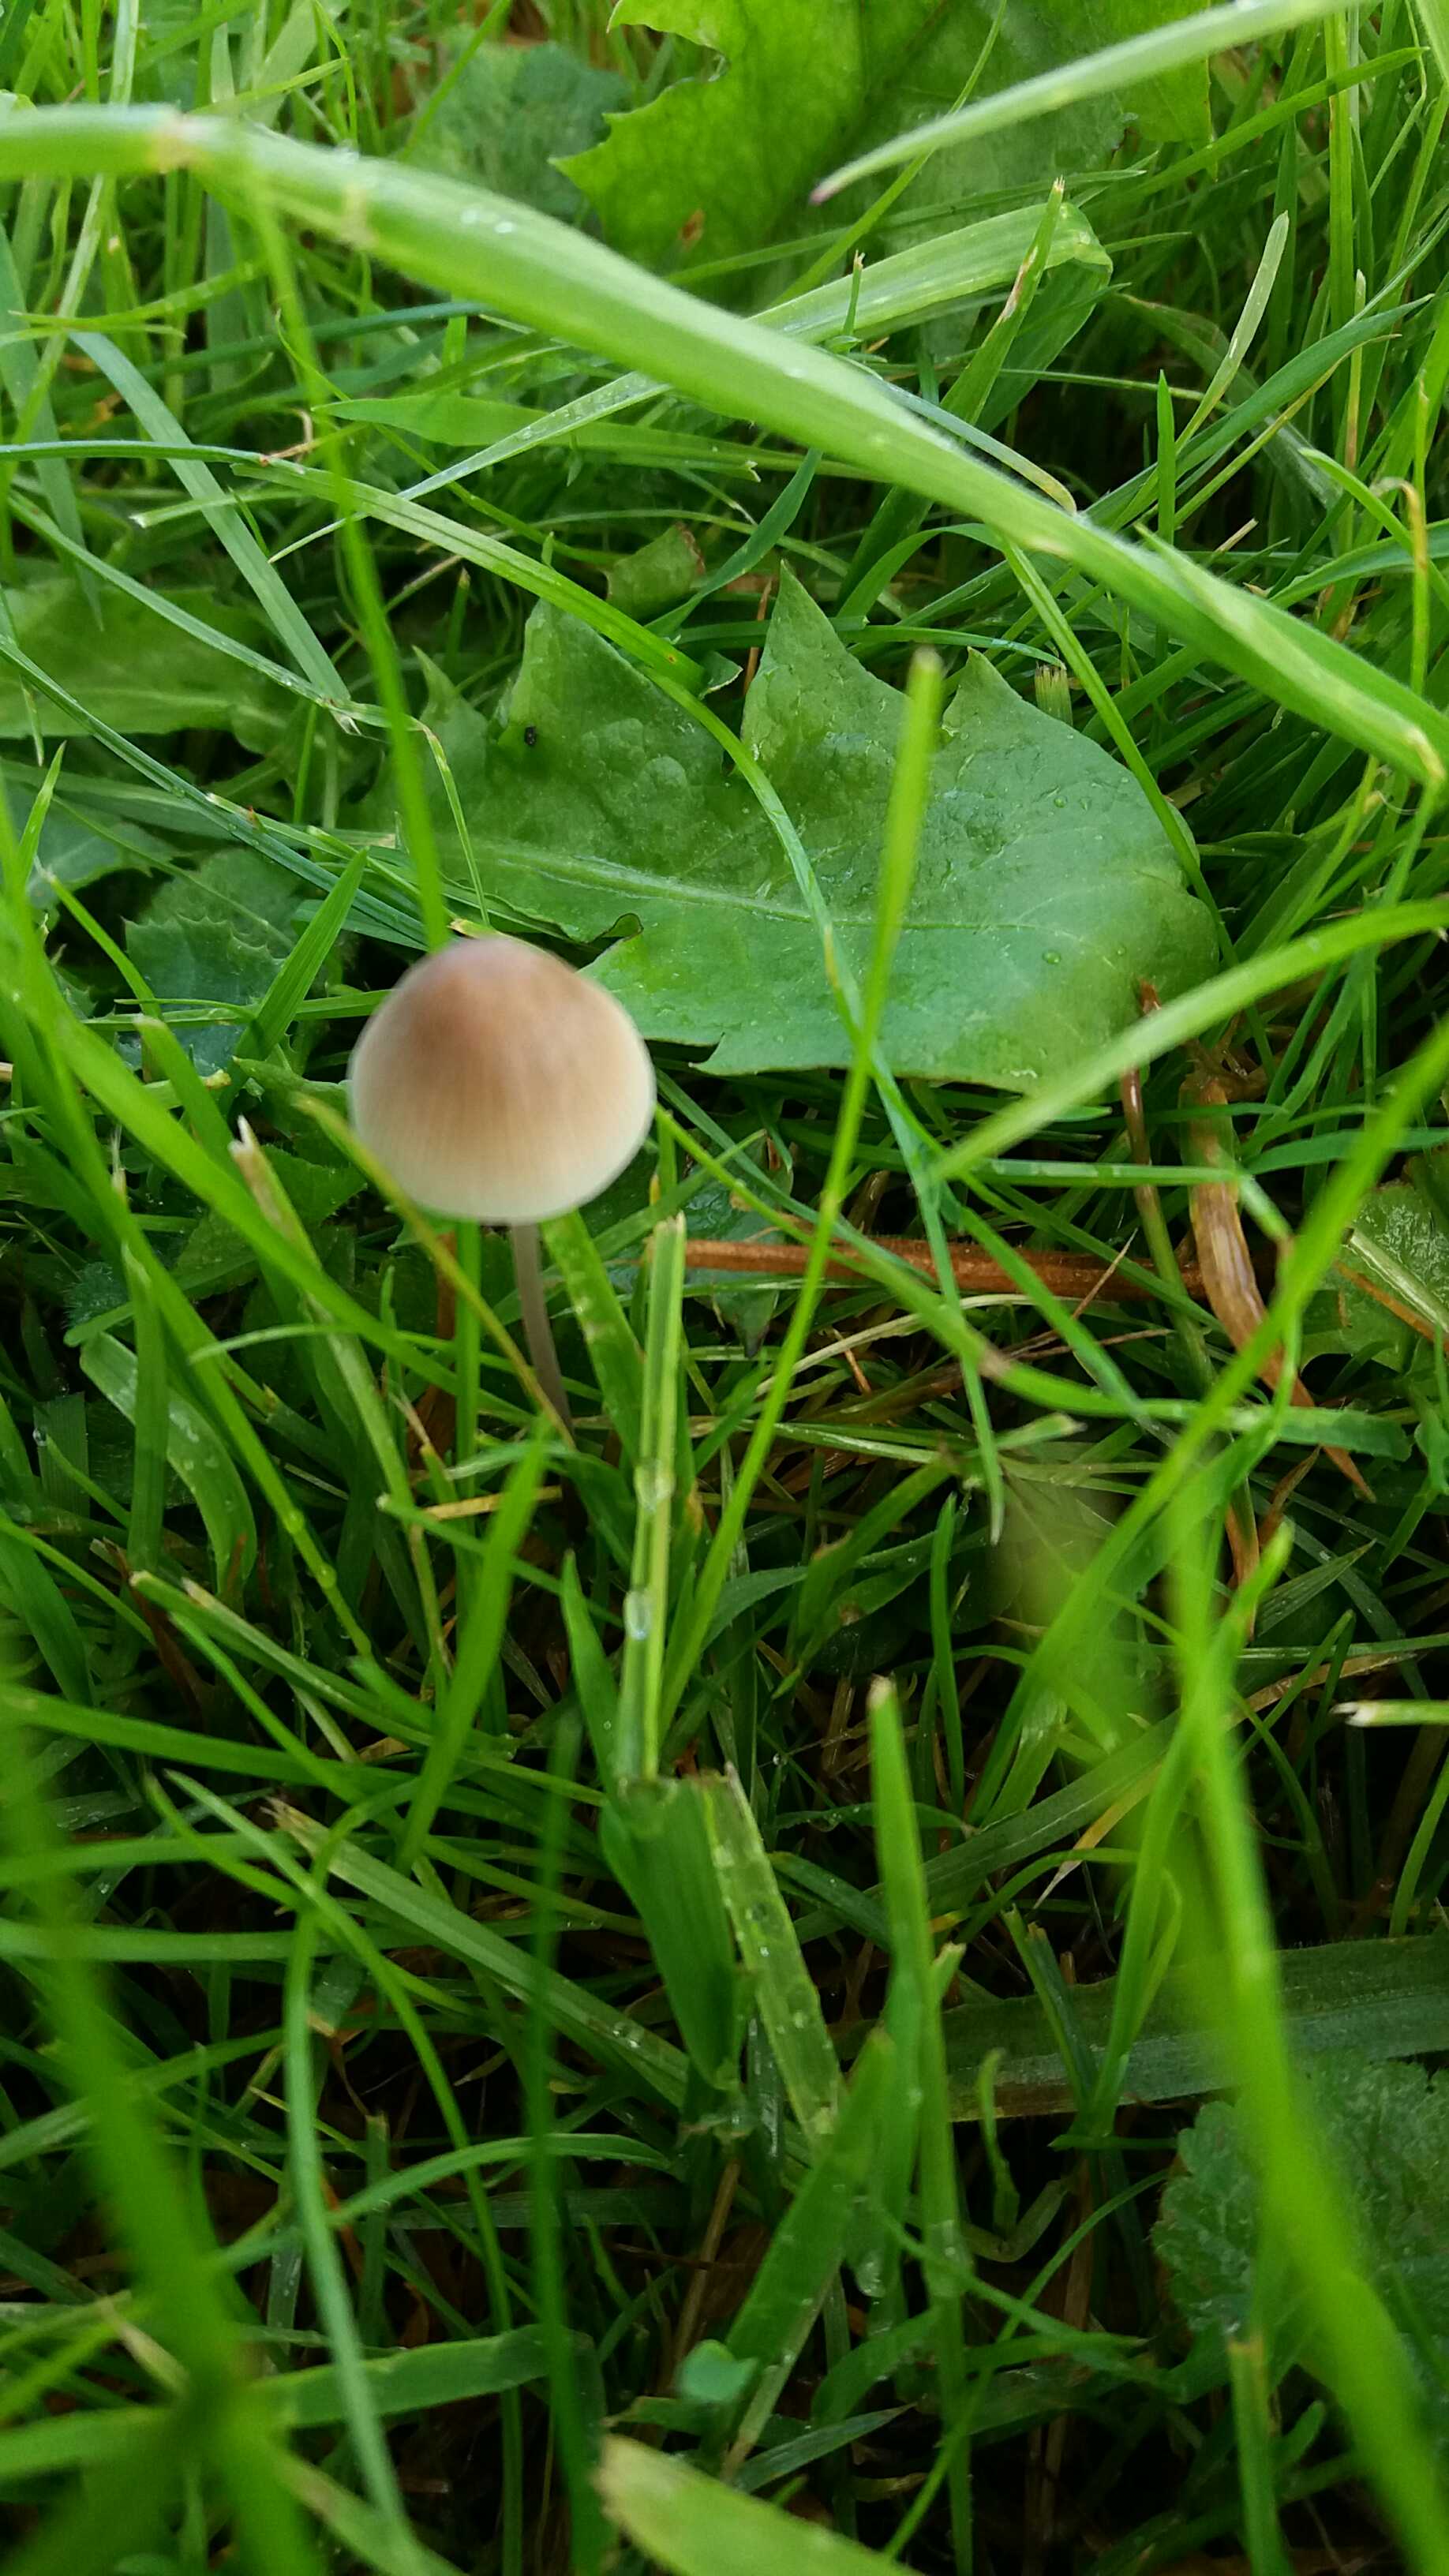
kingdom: Fungi
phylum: Basidiomycota
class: Agaricomycetes
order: Agaricales
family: Mycenaceae
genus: Mycena
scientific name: Mycena filopes
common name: jod-huesvamp
